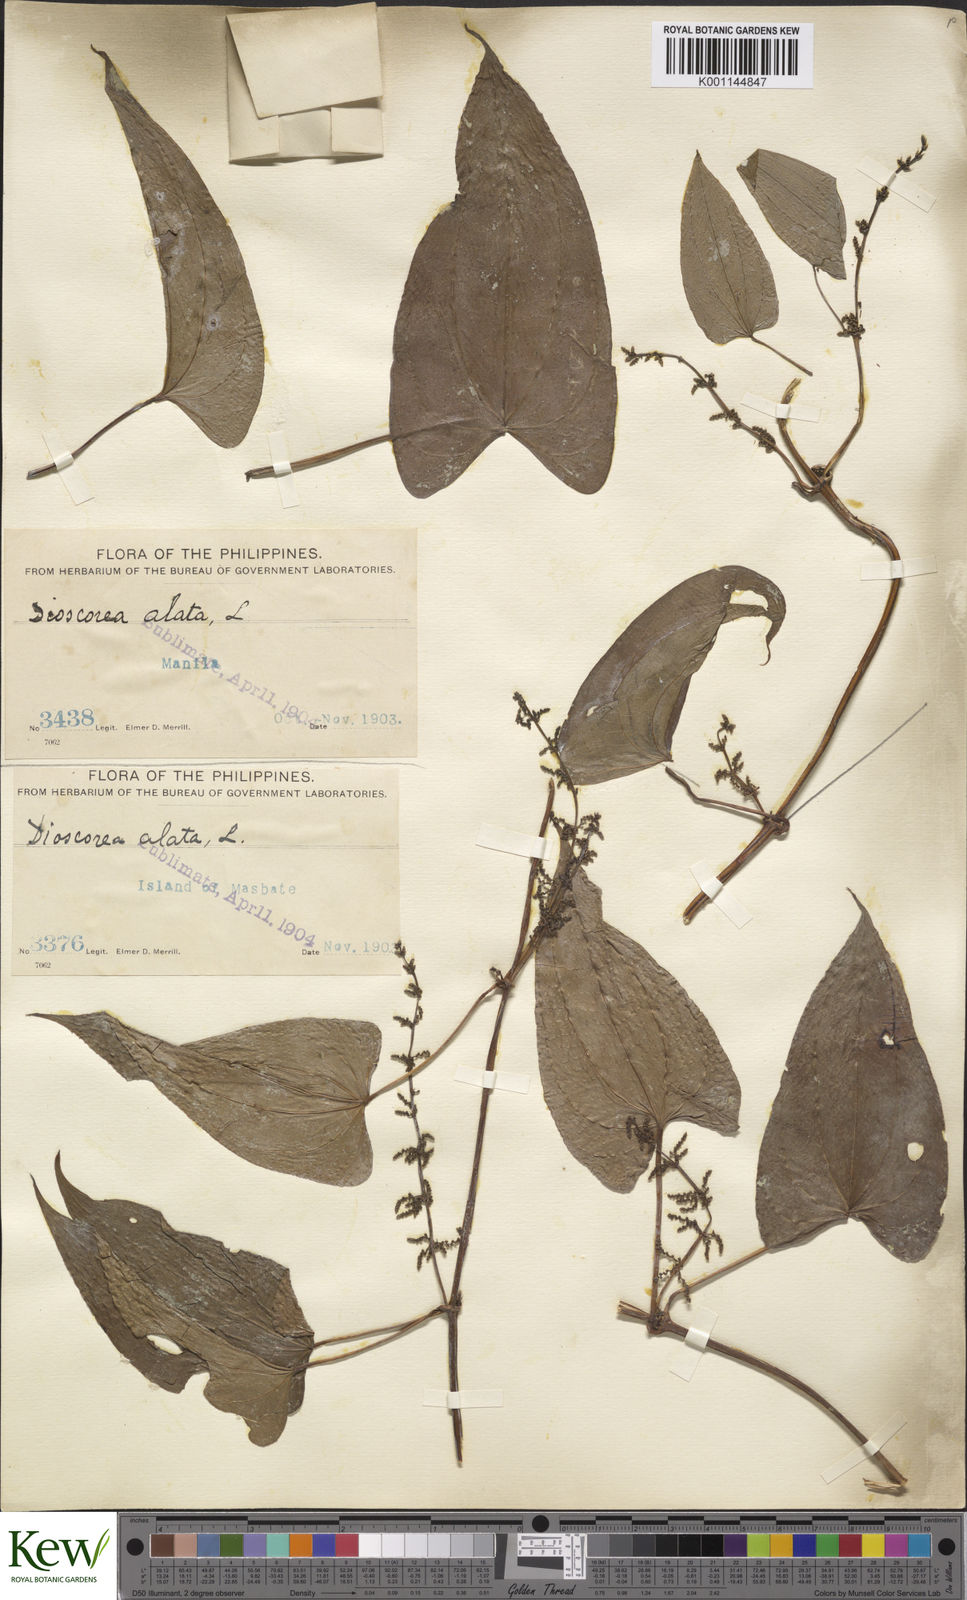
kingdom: Plantae
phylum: Tracheophyta
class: Liliopsida
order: Dioscoreales
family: Dioscoreaceae
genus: Dioscorea
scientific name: Dioscorea alata
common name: Water yam
